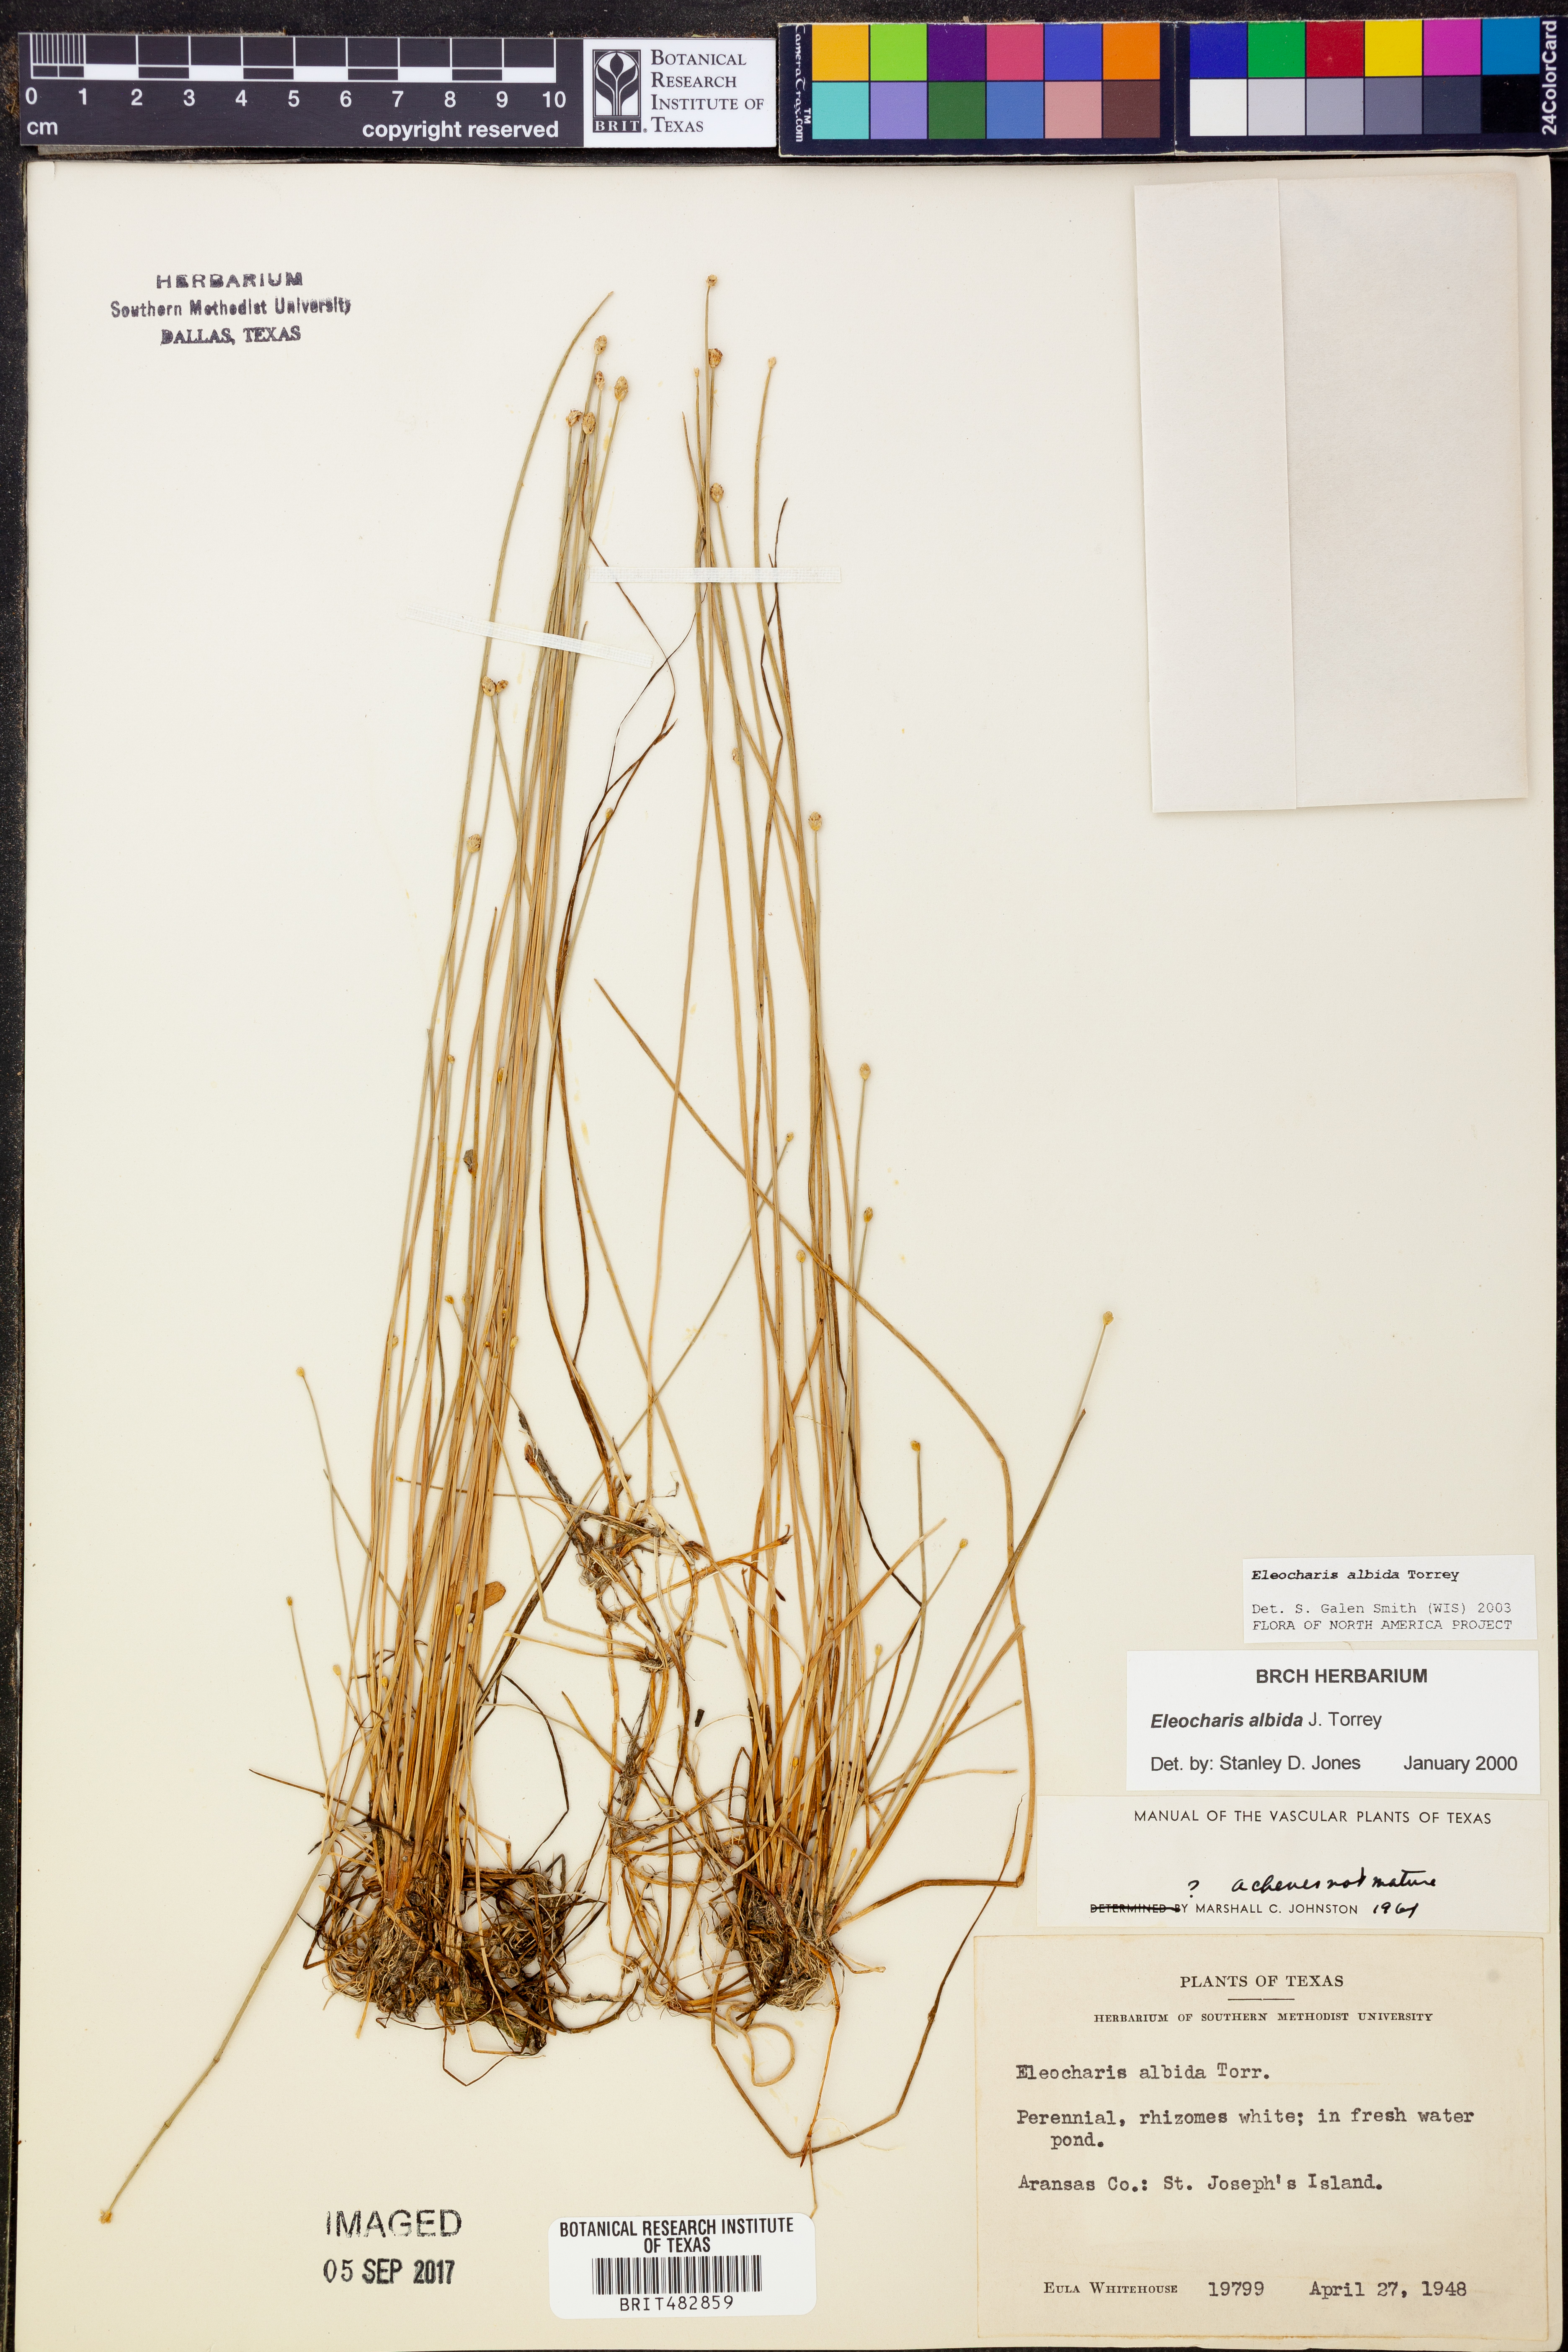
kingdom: Plantae
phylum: Tracheophyta
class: Liliopsida
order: Poales
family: Cyperaceae
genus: Eleocharis
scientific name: Eleocharis albida
